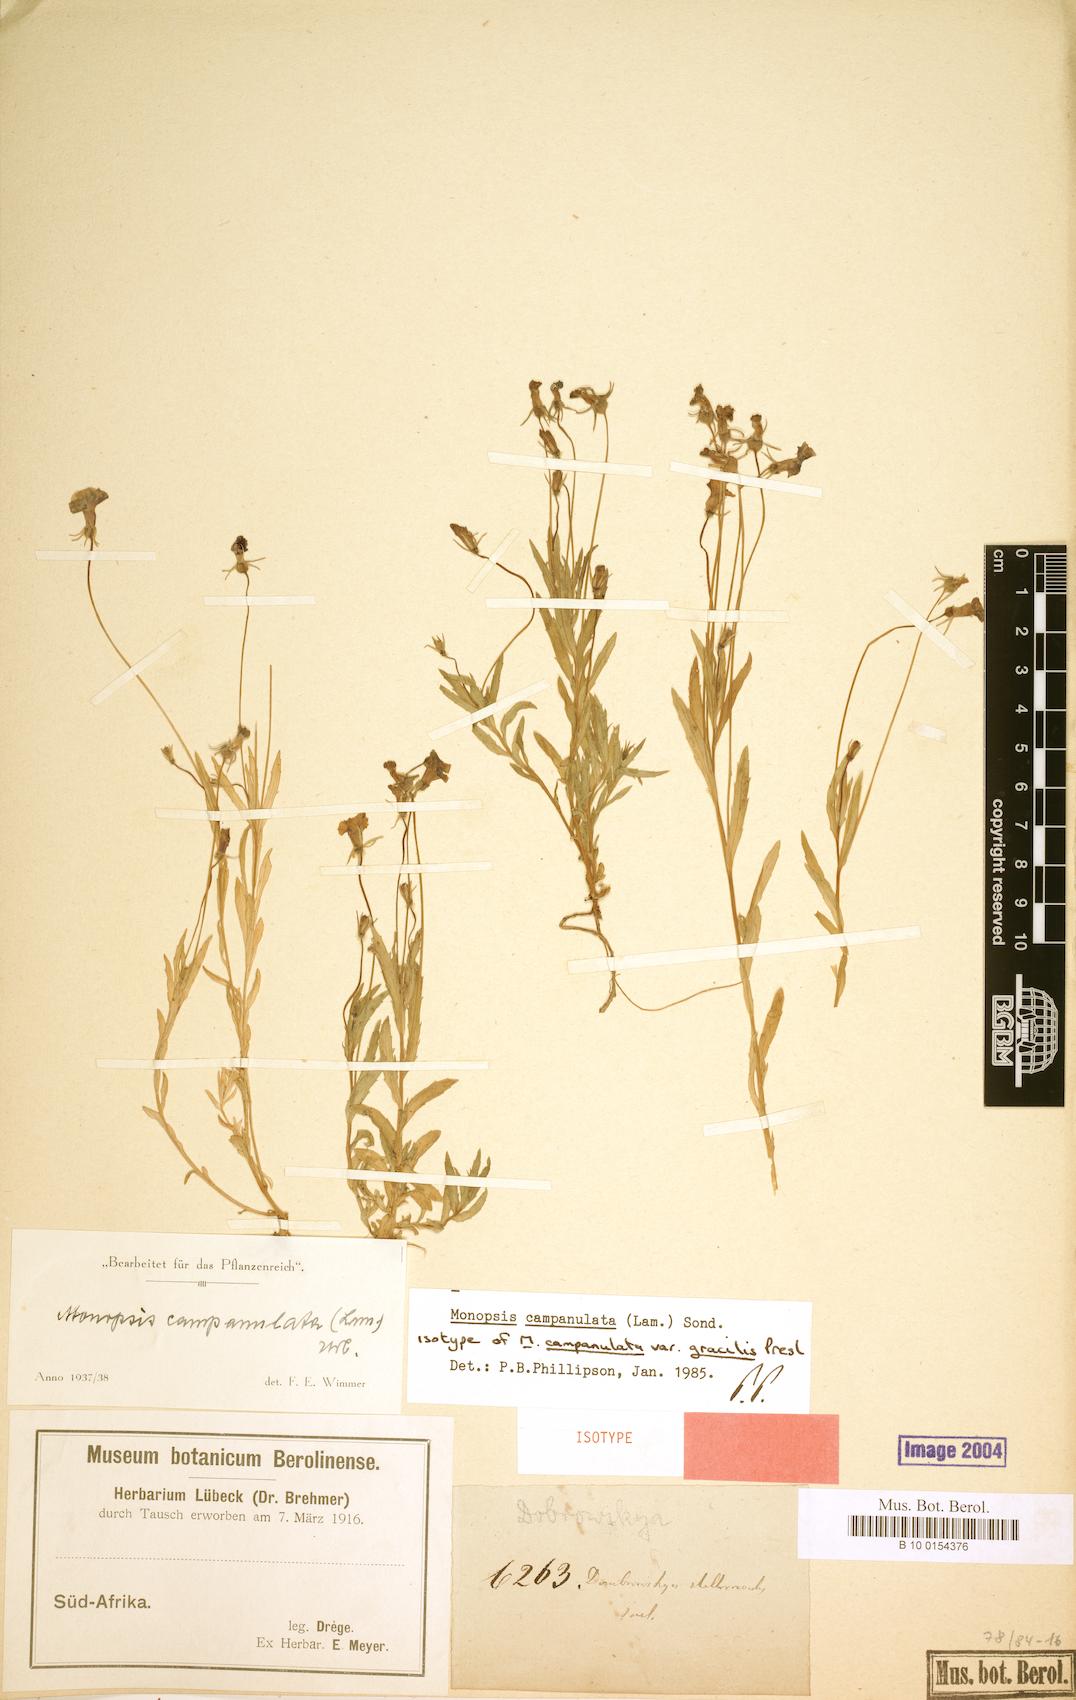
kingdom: Plantae
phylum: Tracheophyta
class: Magnoliopsida
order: Asterales
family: Campanulaceae
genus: Monopsis
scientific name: Monopsis debilis
